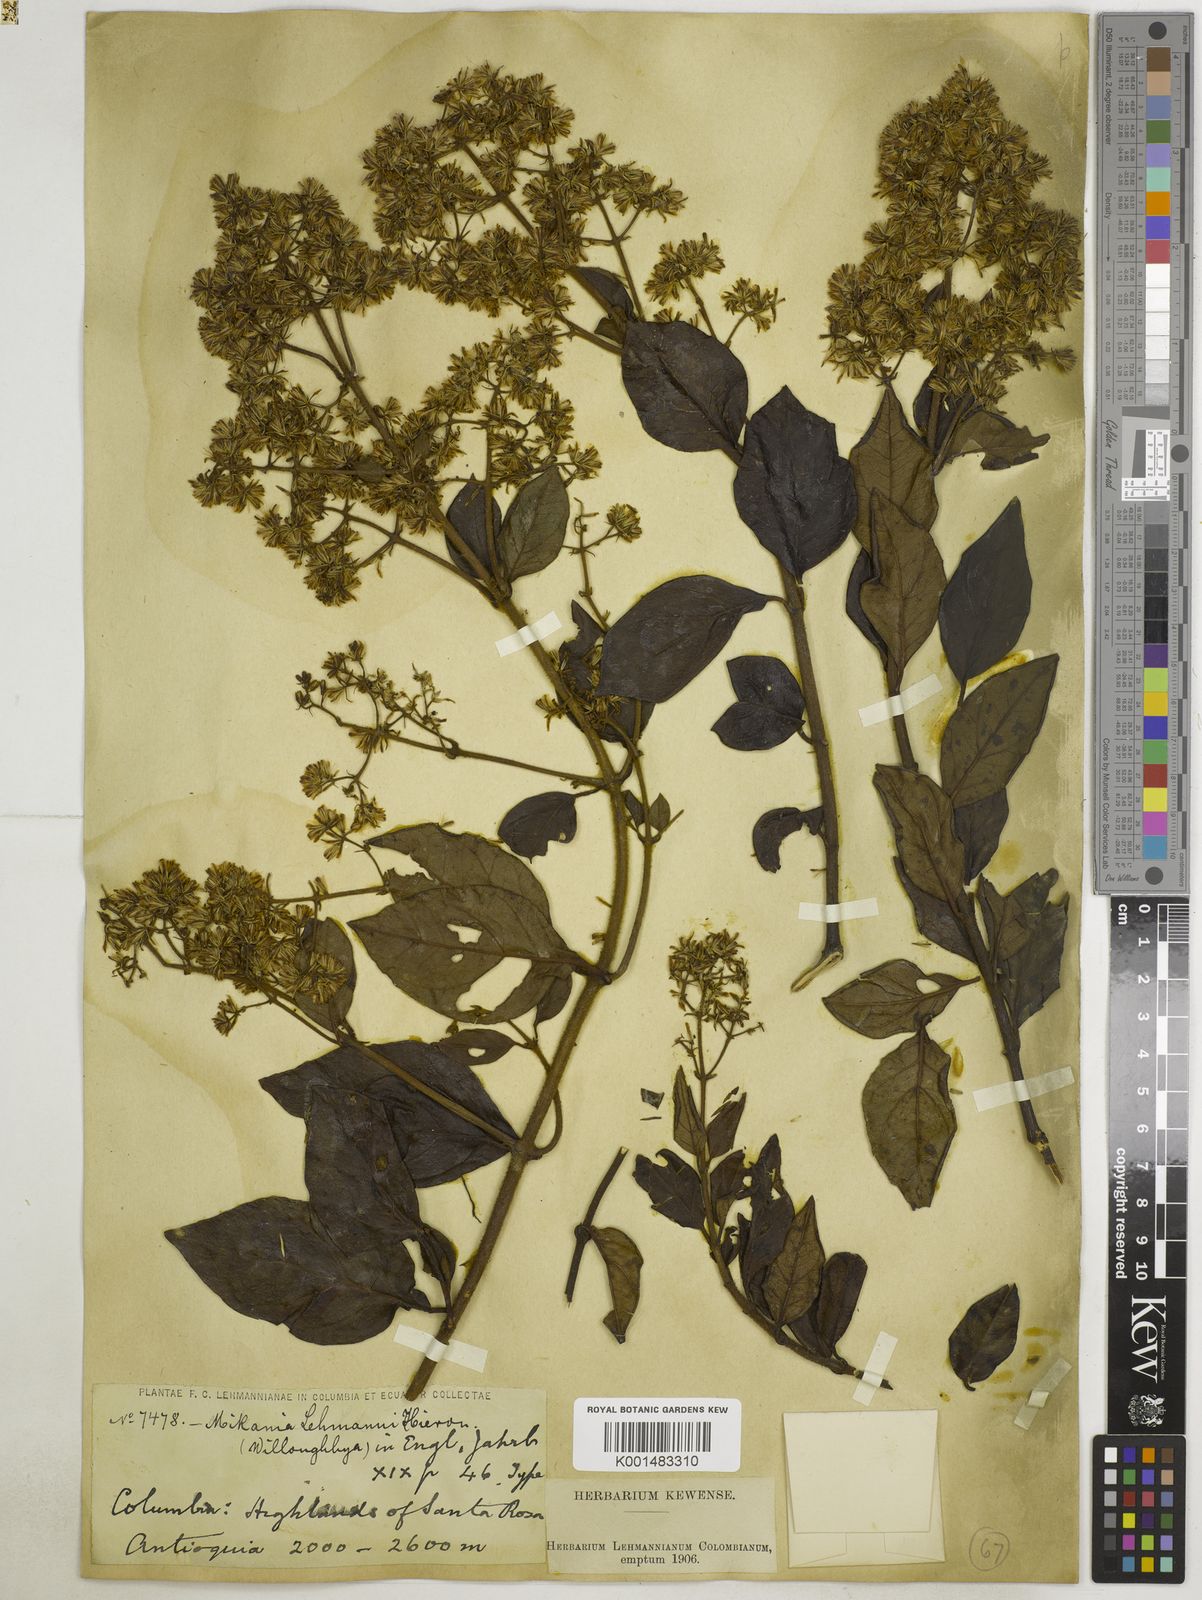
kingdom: Plantae
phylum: Tracheophyta
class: Magnoliopsida
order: Asterales
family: Asteraceae
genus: Mikania
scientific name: Mikania lehmannii
